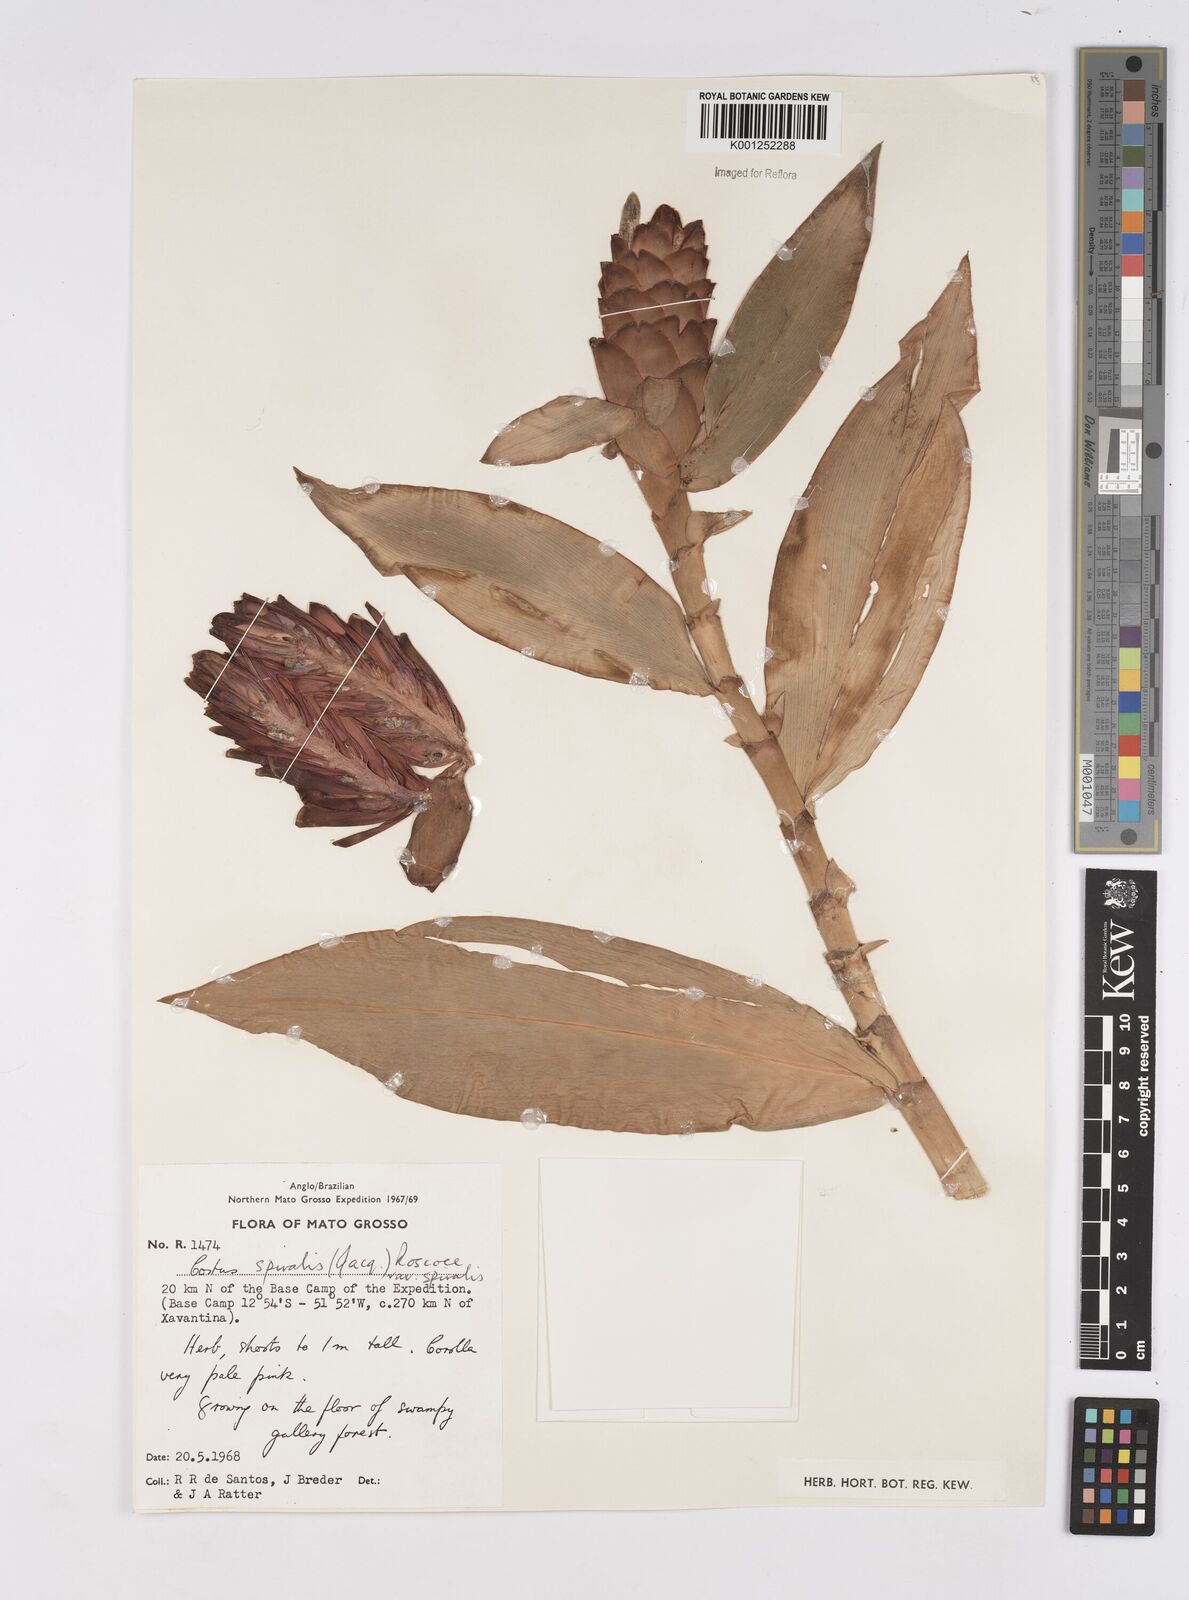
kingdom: Plantae
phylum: Tracheophyta
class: Liliopsida
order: Zingiberales
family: Costaceae
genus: Costus
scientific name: Costus spiralis
